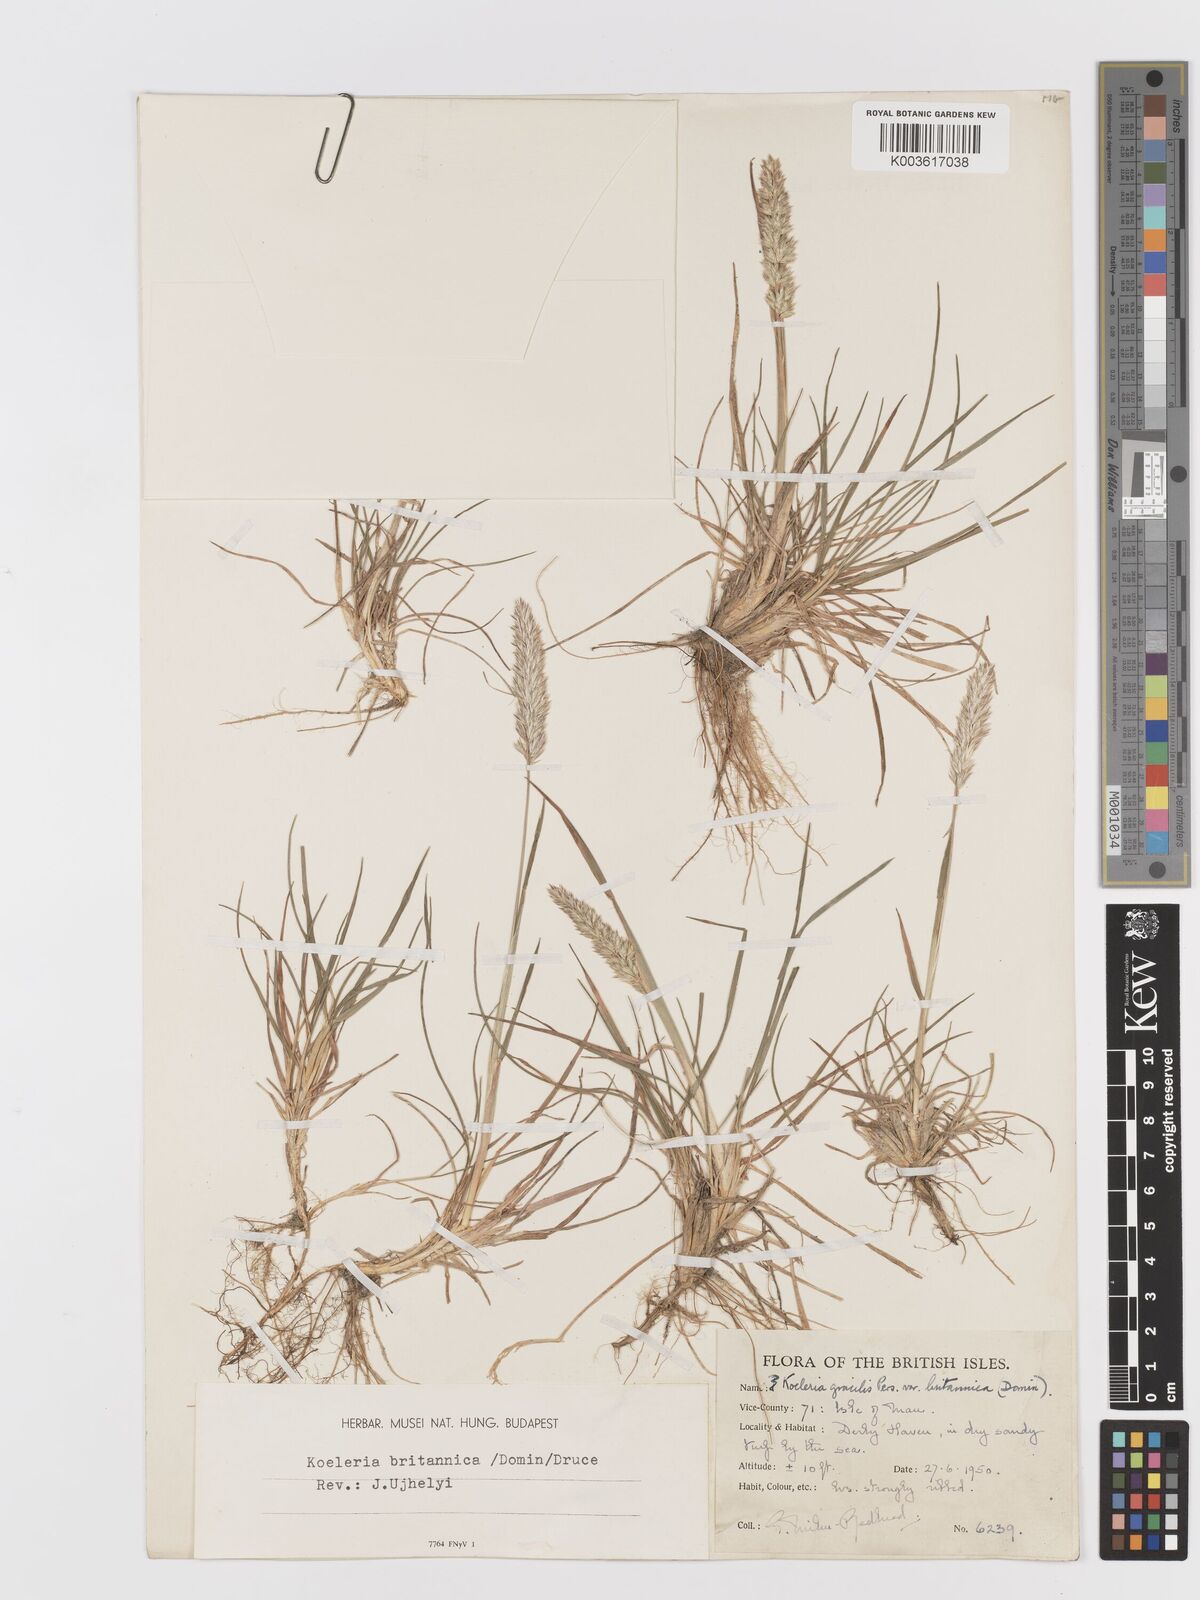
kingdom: Plantae
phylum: Tracheophyta
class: Liliopsida
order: Poales
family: Poaceae
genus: Koeleria
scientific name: Koeleria macrantha
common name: Crested hair-grass
